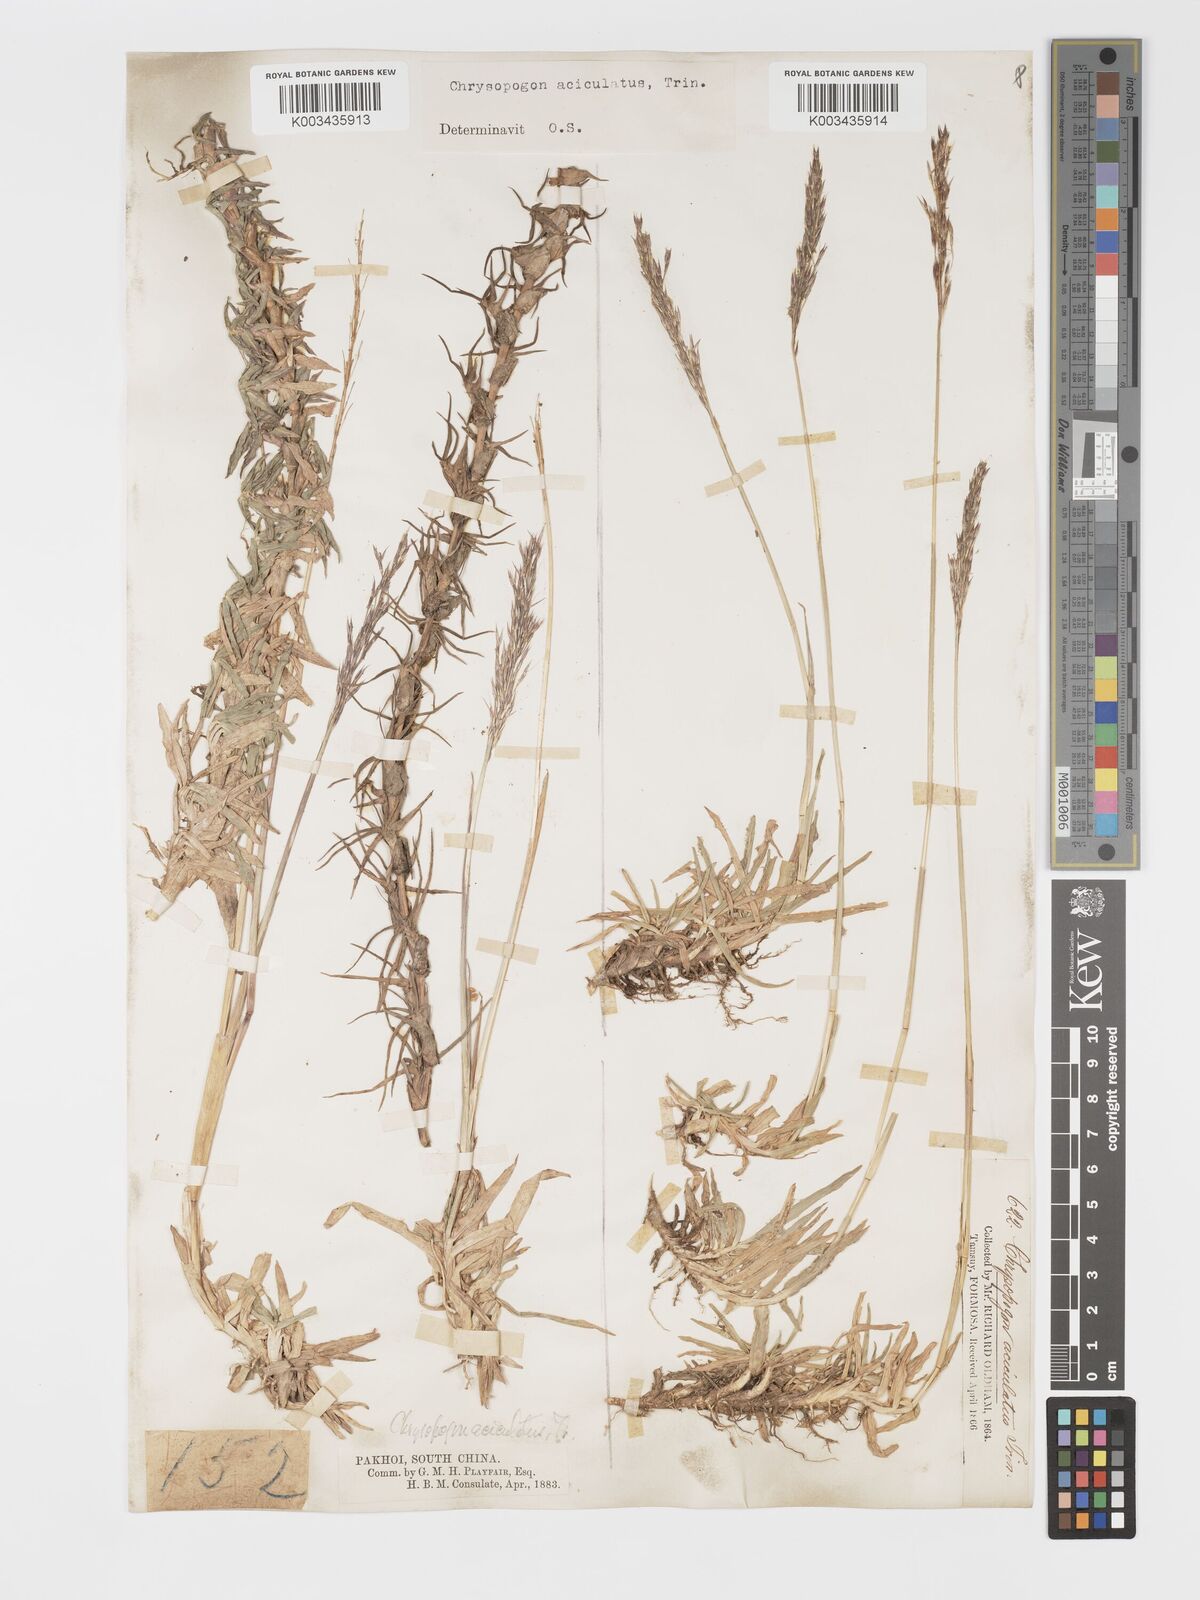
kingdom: Plantae
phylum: Tracheophyta
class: Liliopsida
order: Poales
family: Poaceae
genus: Chrysopogon
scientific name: Chrysopogon aciculatus
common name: Pilipiliula
